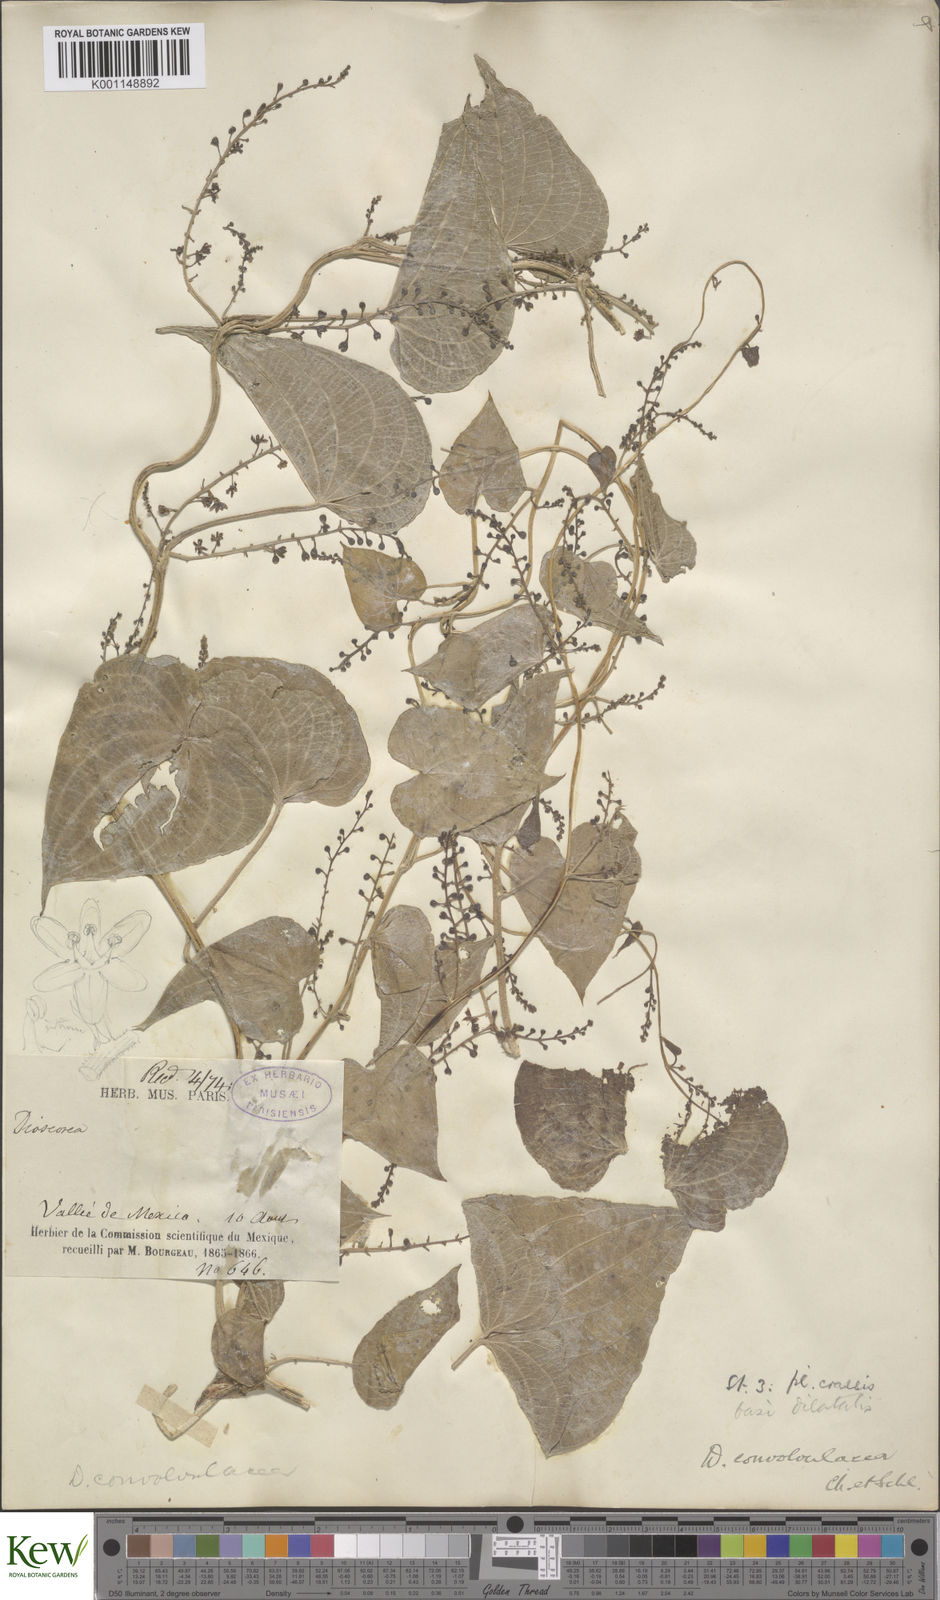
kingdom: Plantae
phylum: Tracheophyta
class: Liliopsida
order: Dioscoreales
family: Dioscoreaceae
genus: Dioscorea
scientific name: Dioscorea galeottiana
